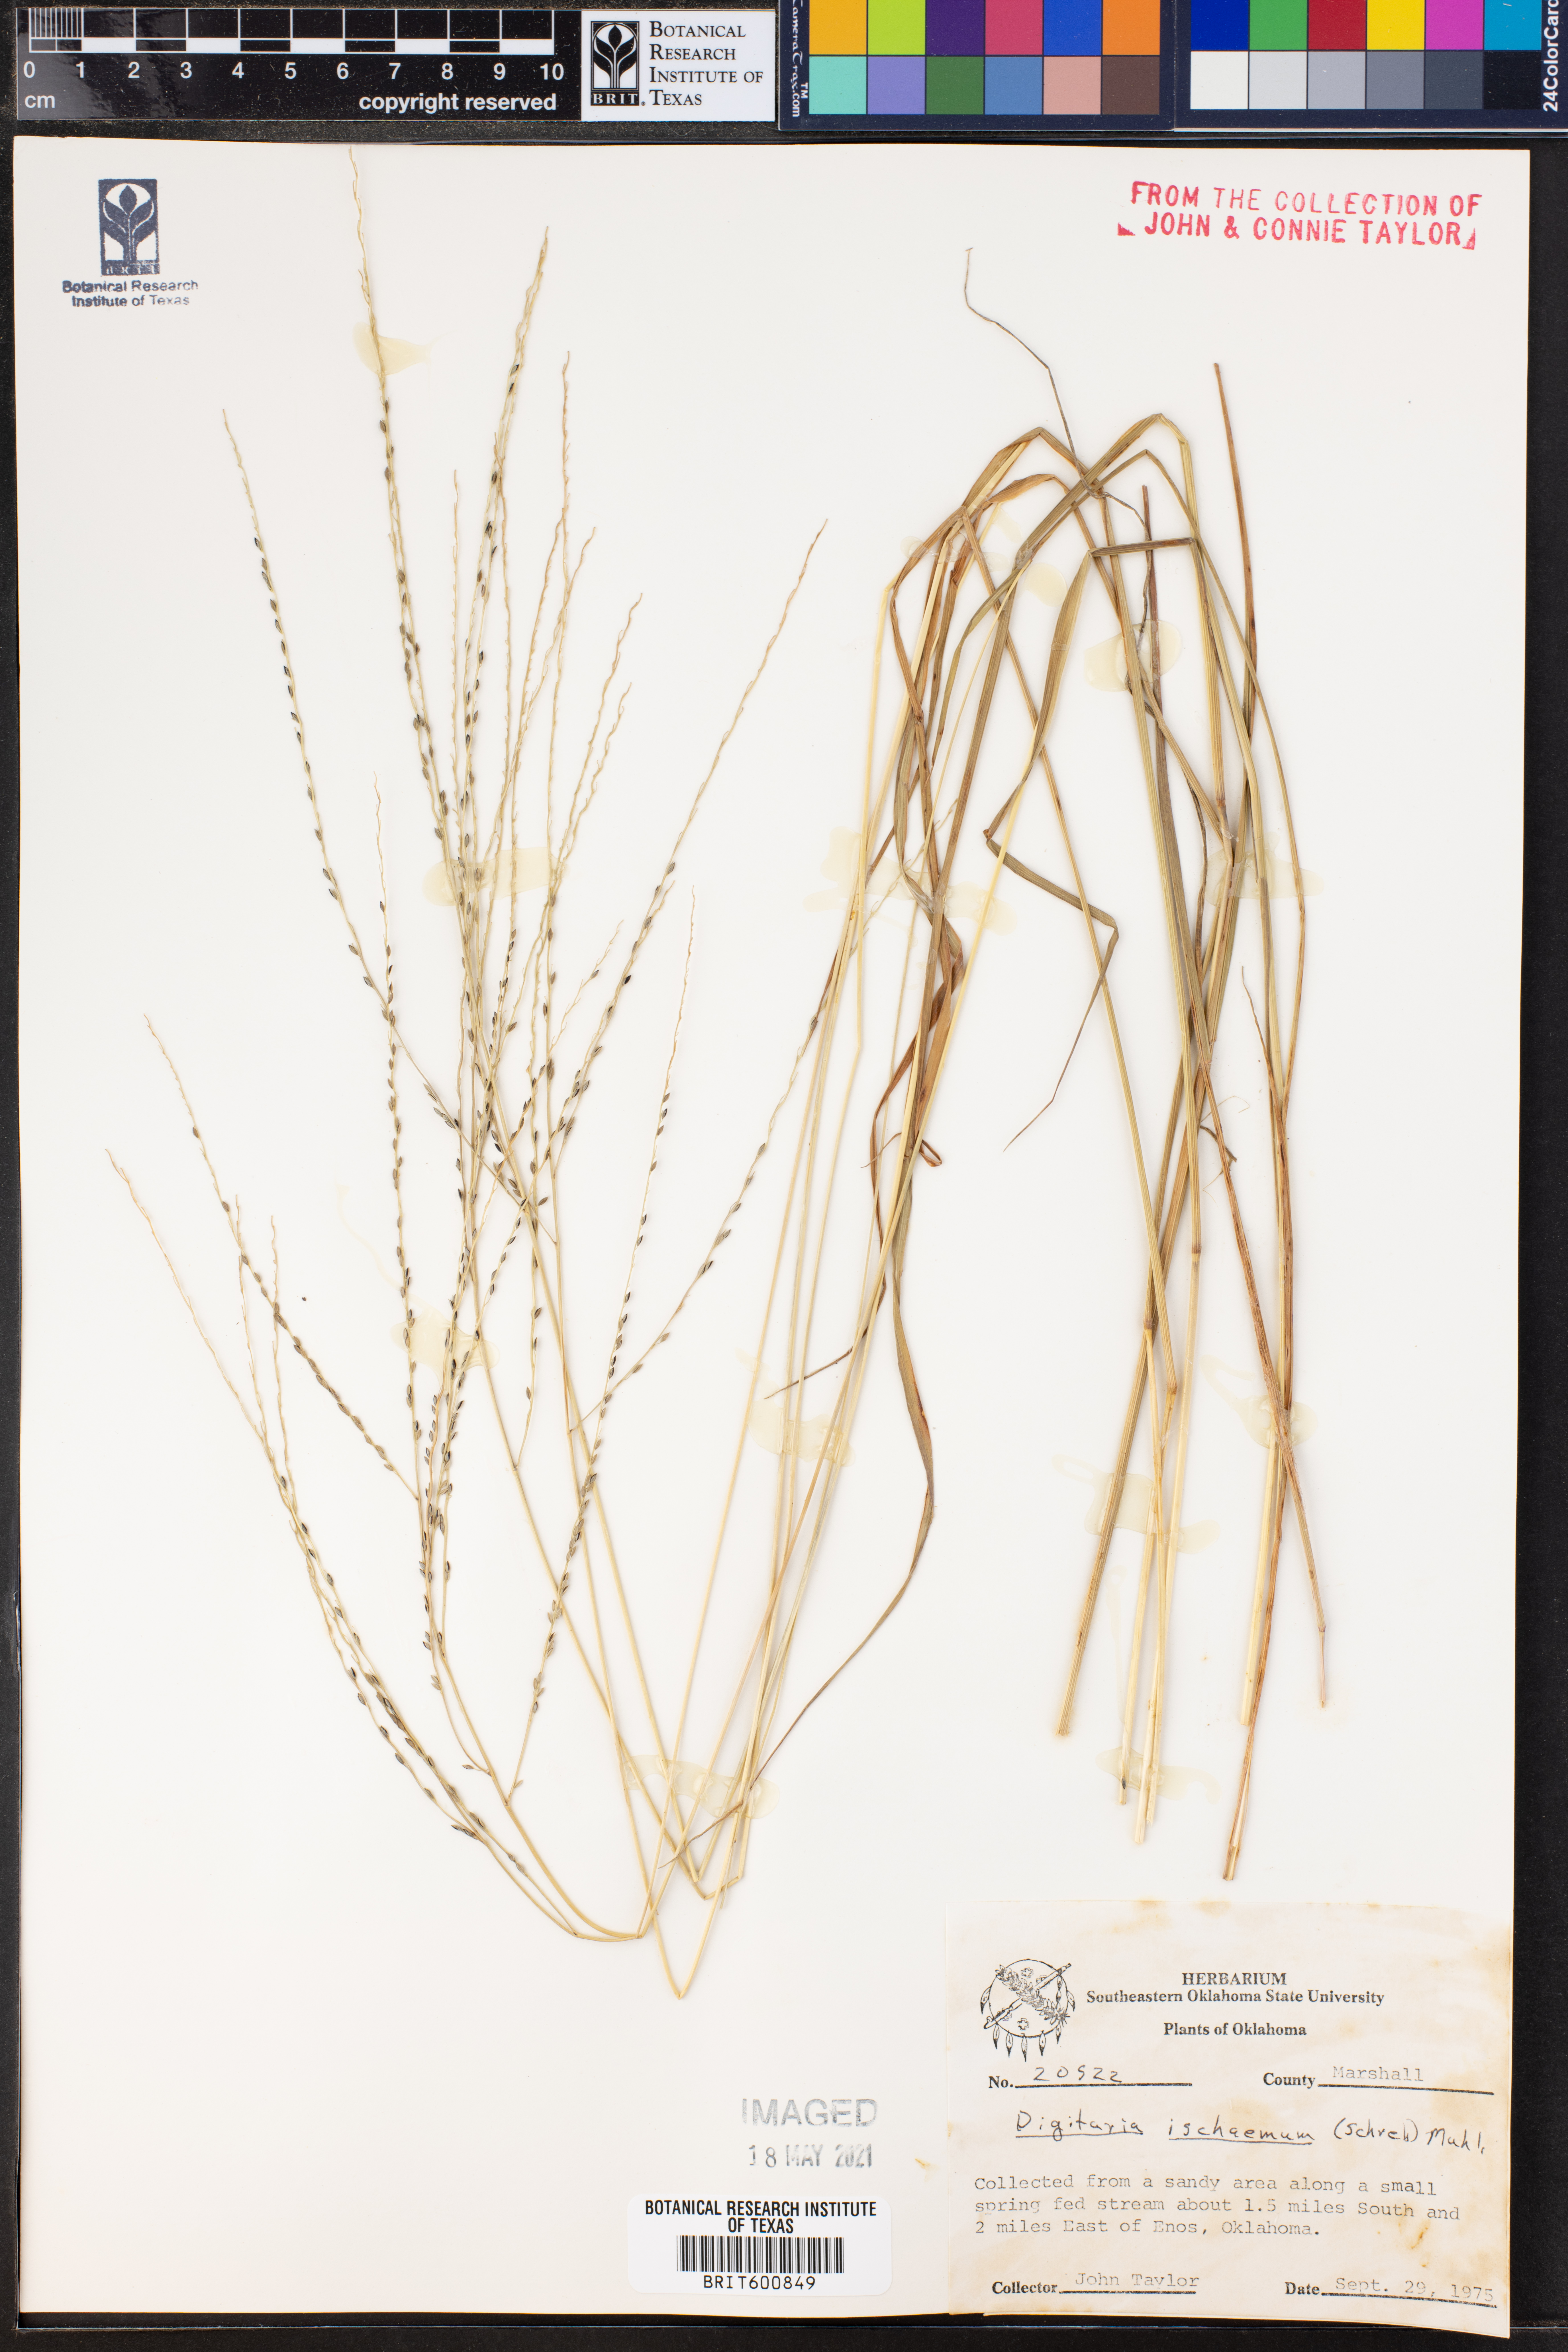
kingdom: Plantae
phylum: Tracheophyta
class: Liliopsida
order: Poales
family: Poaceae
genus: Digitaria
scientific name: Digitaria ischaemum
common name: Smooth crabgrass
